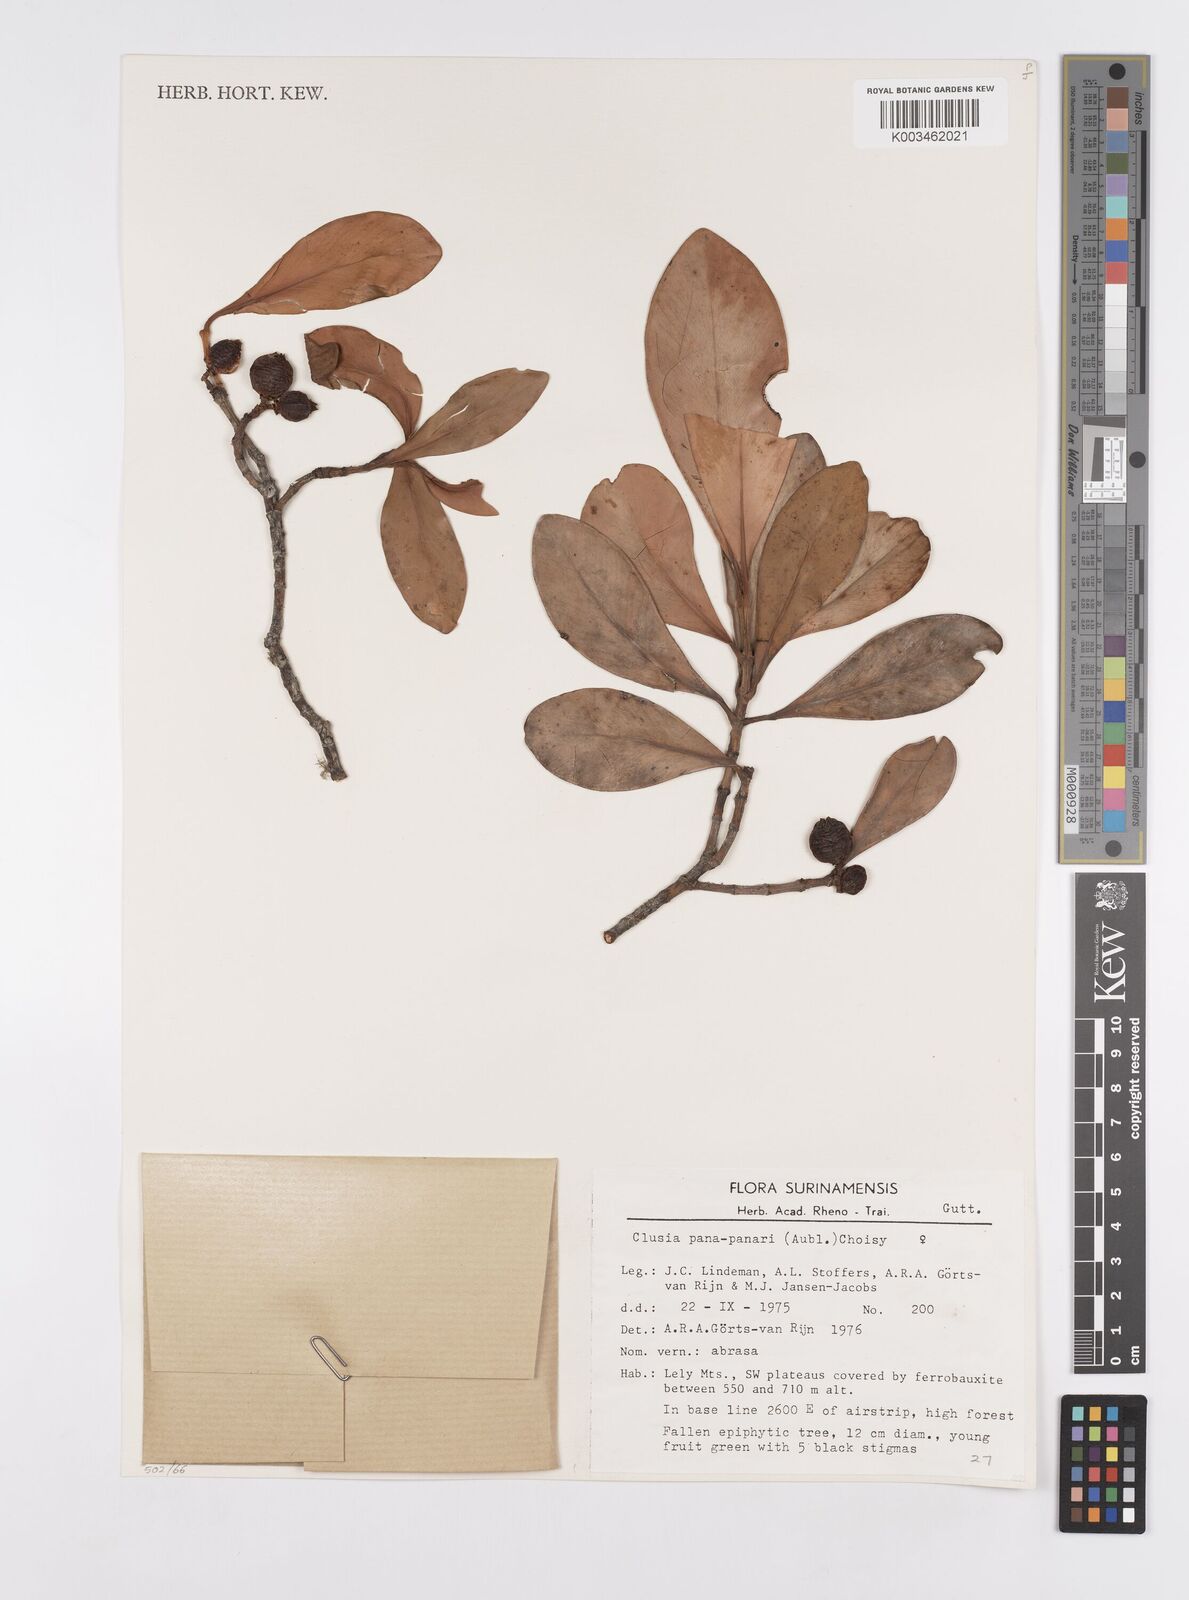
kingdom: Plantae
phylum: Tracheophyta
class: Magnoliopsida
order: Malpighiales
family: Clusiaceae
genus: Clusia
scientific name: Clusia panapanari
